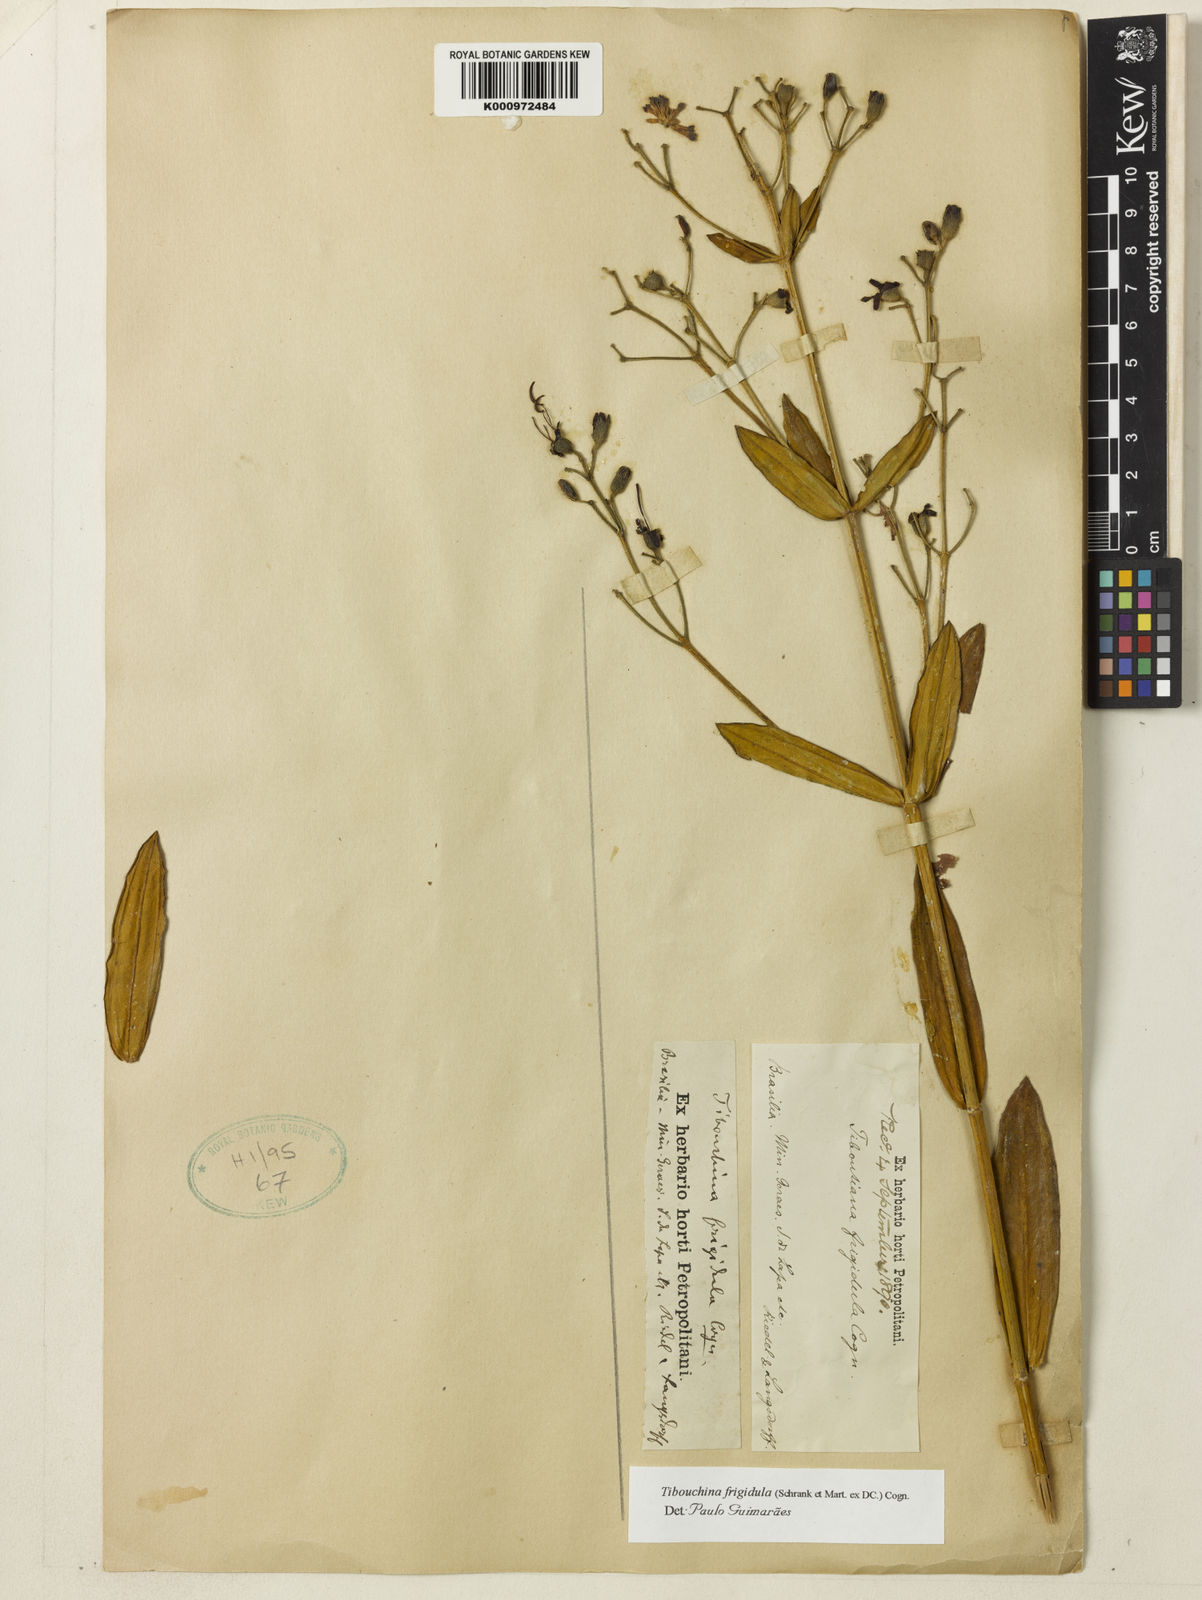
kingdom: Plantae
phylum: Tracheophyta
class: Magnoliopsida
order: Myrtales
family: Melastomataceae
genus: Pleroma
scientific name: Pleroma martiusianum
